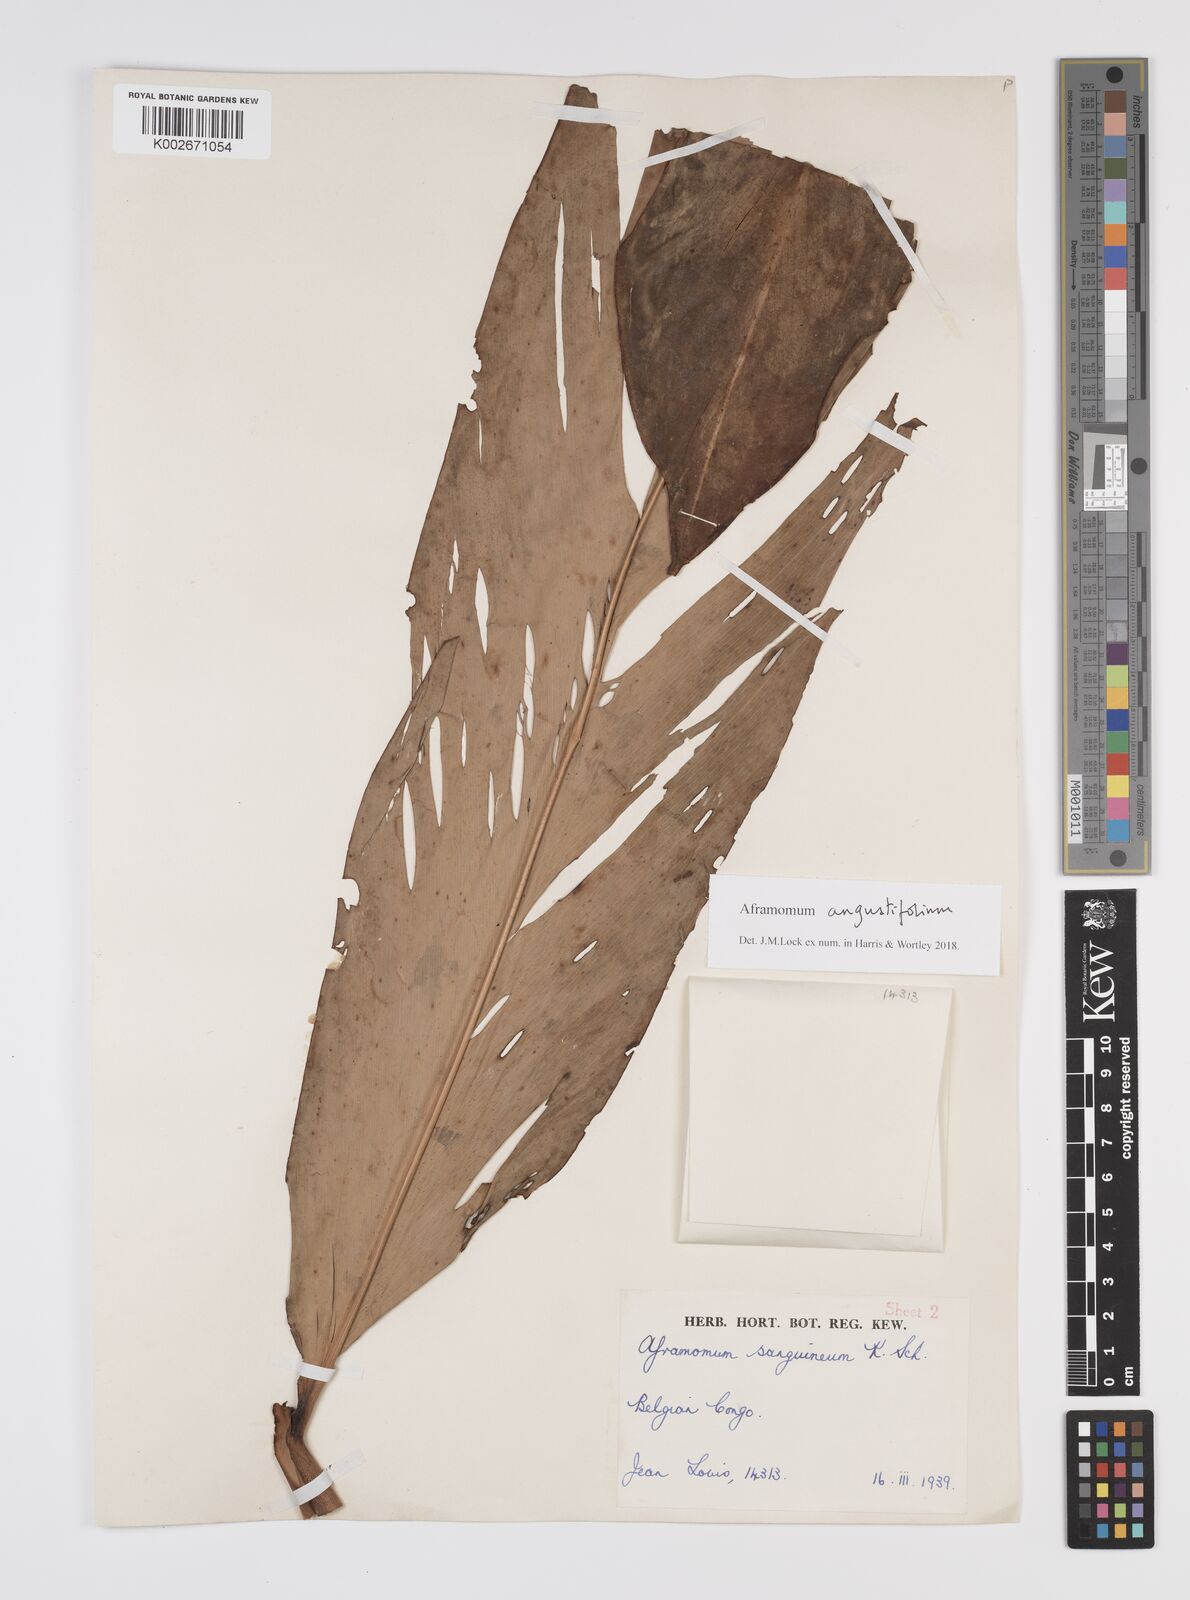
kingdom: Plantae
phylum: Tracheophyta
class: Liliopsida
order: Zingiberales
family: Zingiberaceae
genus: Aframomum
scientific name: Aframomum angustifolium
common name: Guinea grains
